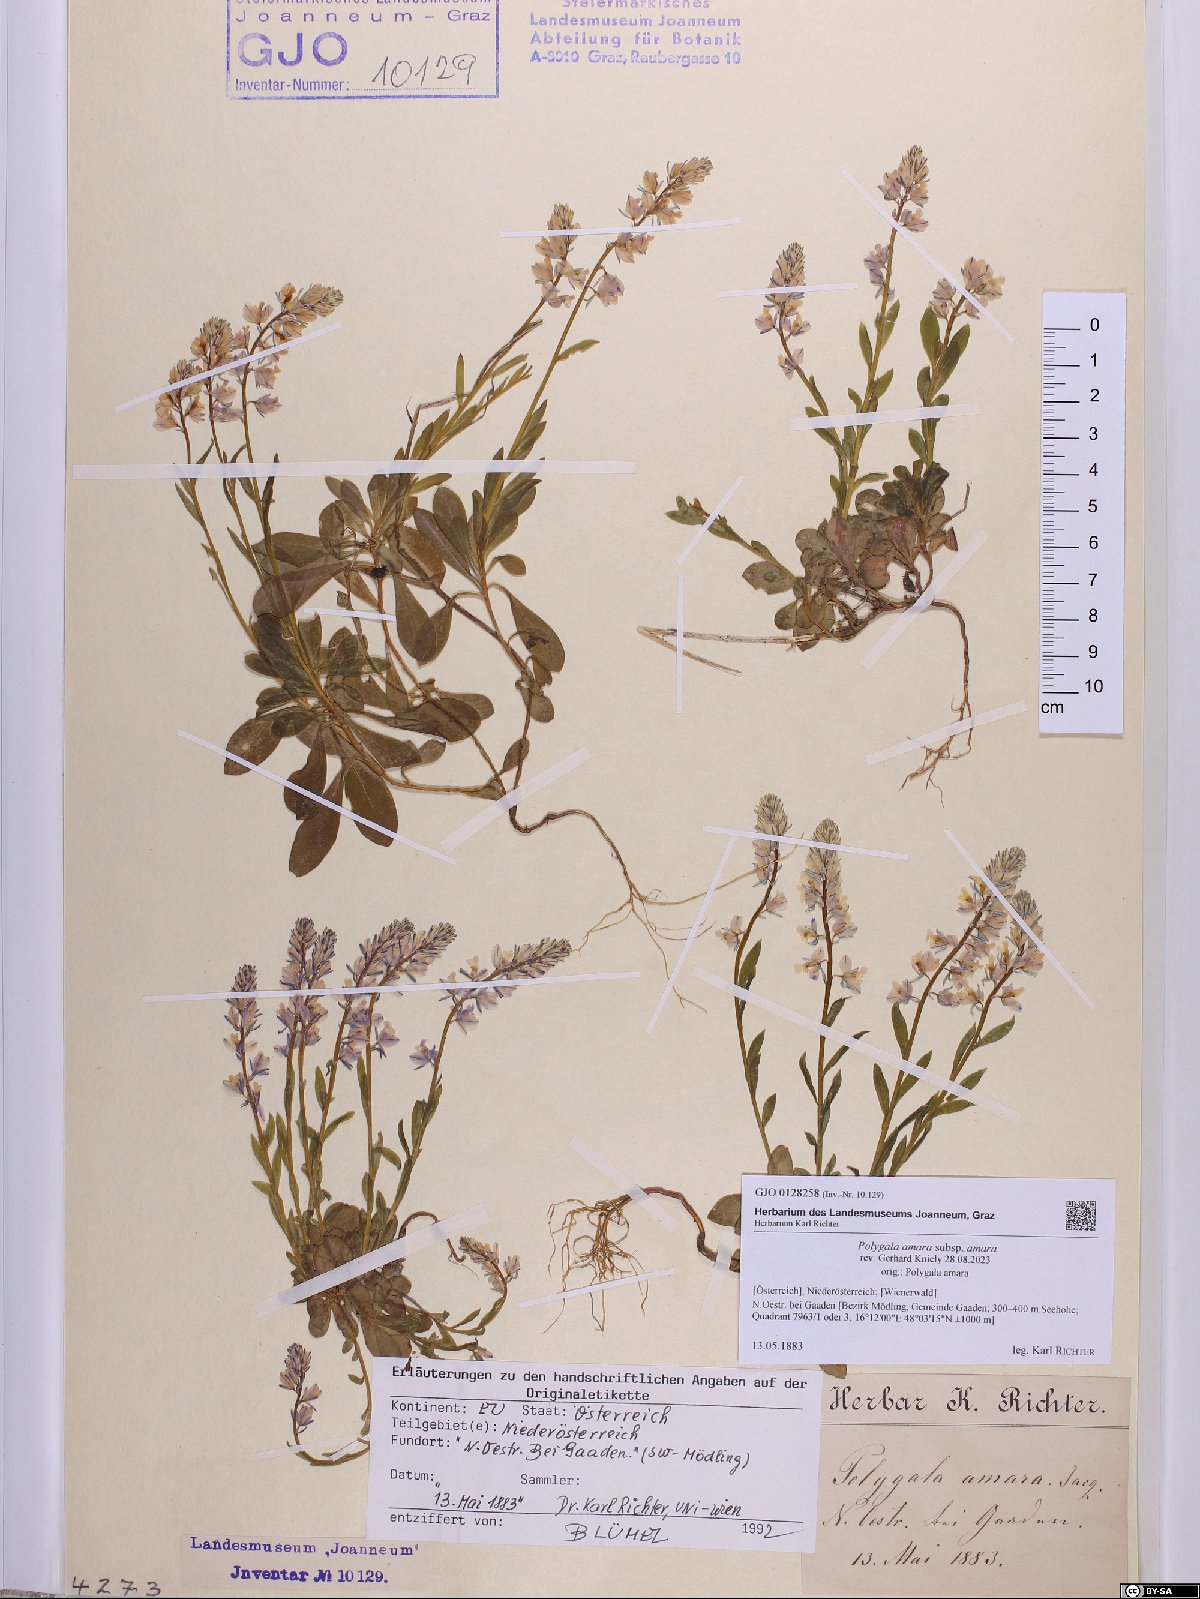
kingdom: Plantae
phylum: Tracheophyta
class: Magnoliopsida
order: Fabales
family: Polygalaceae
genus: Polygala
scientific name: Polygala amara
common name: Milkwort
